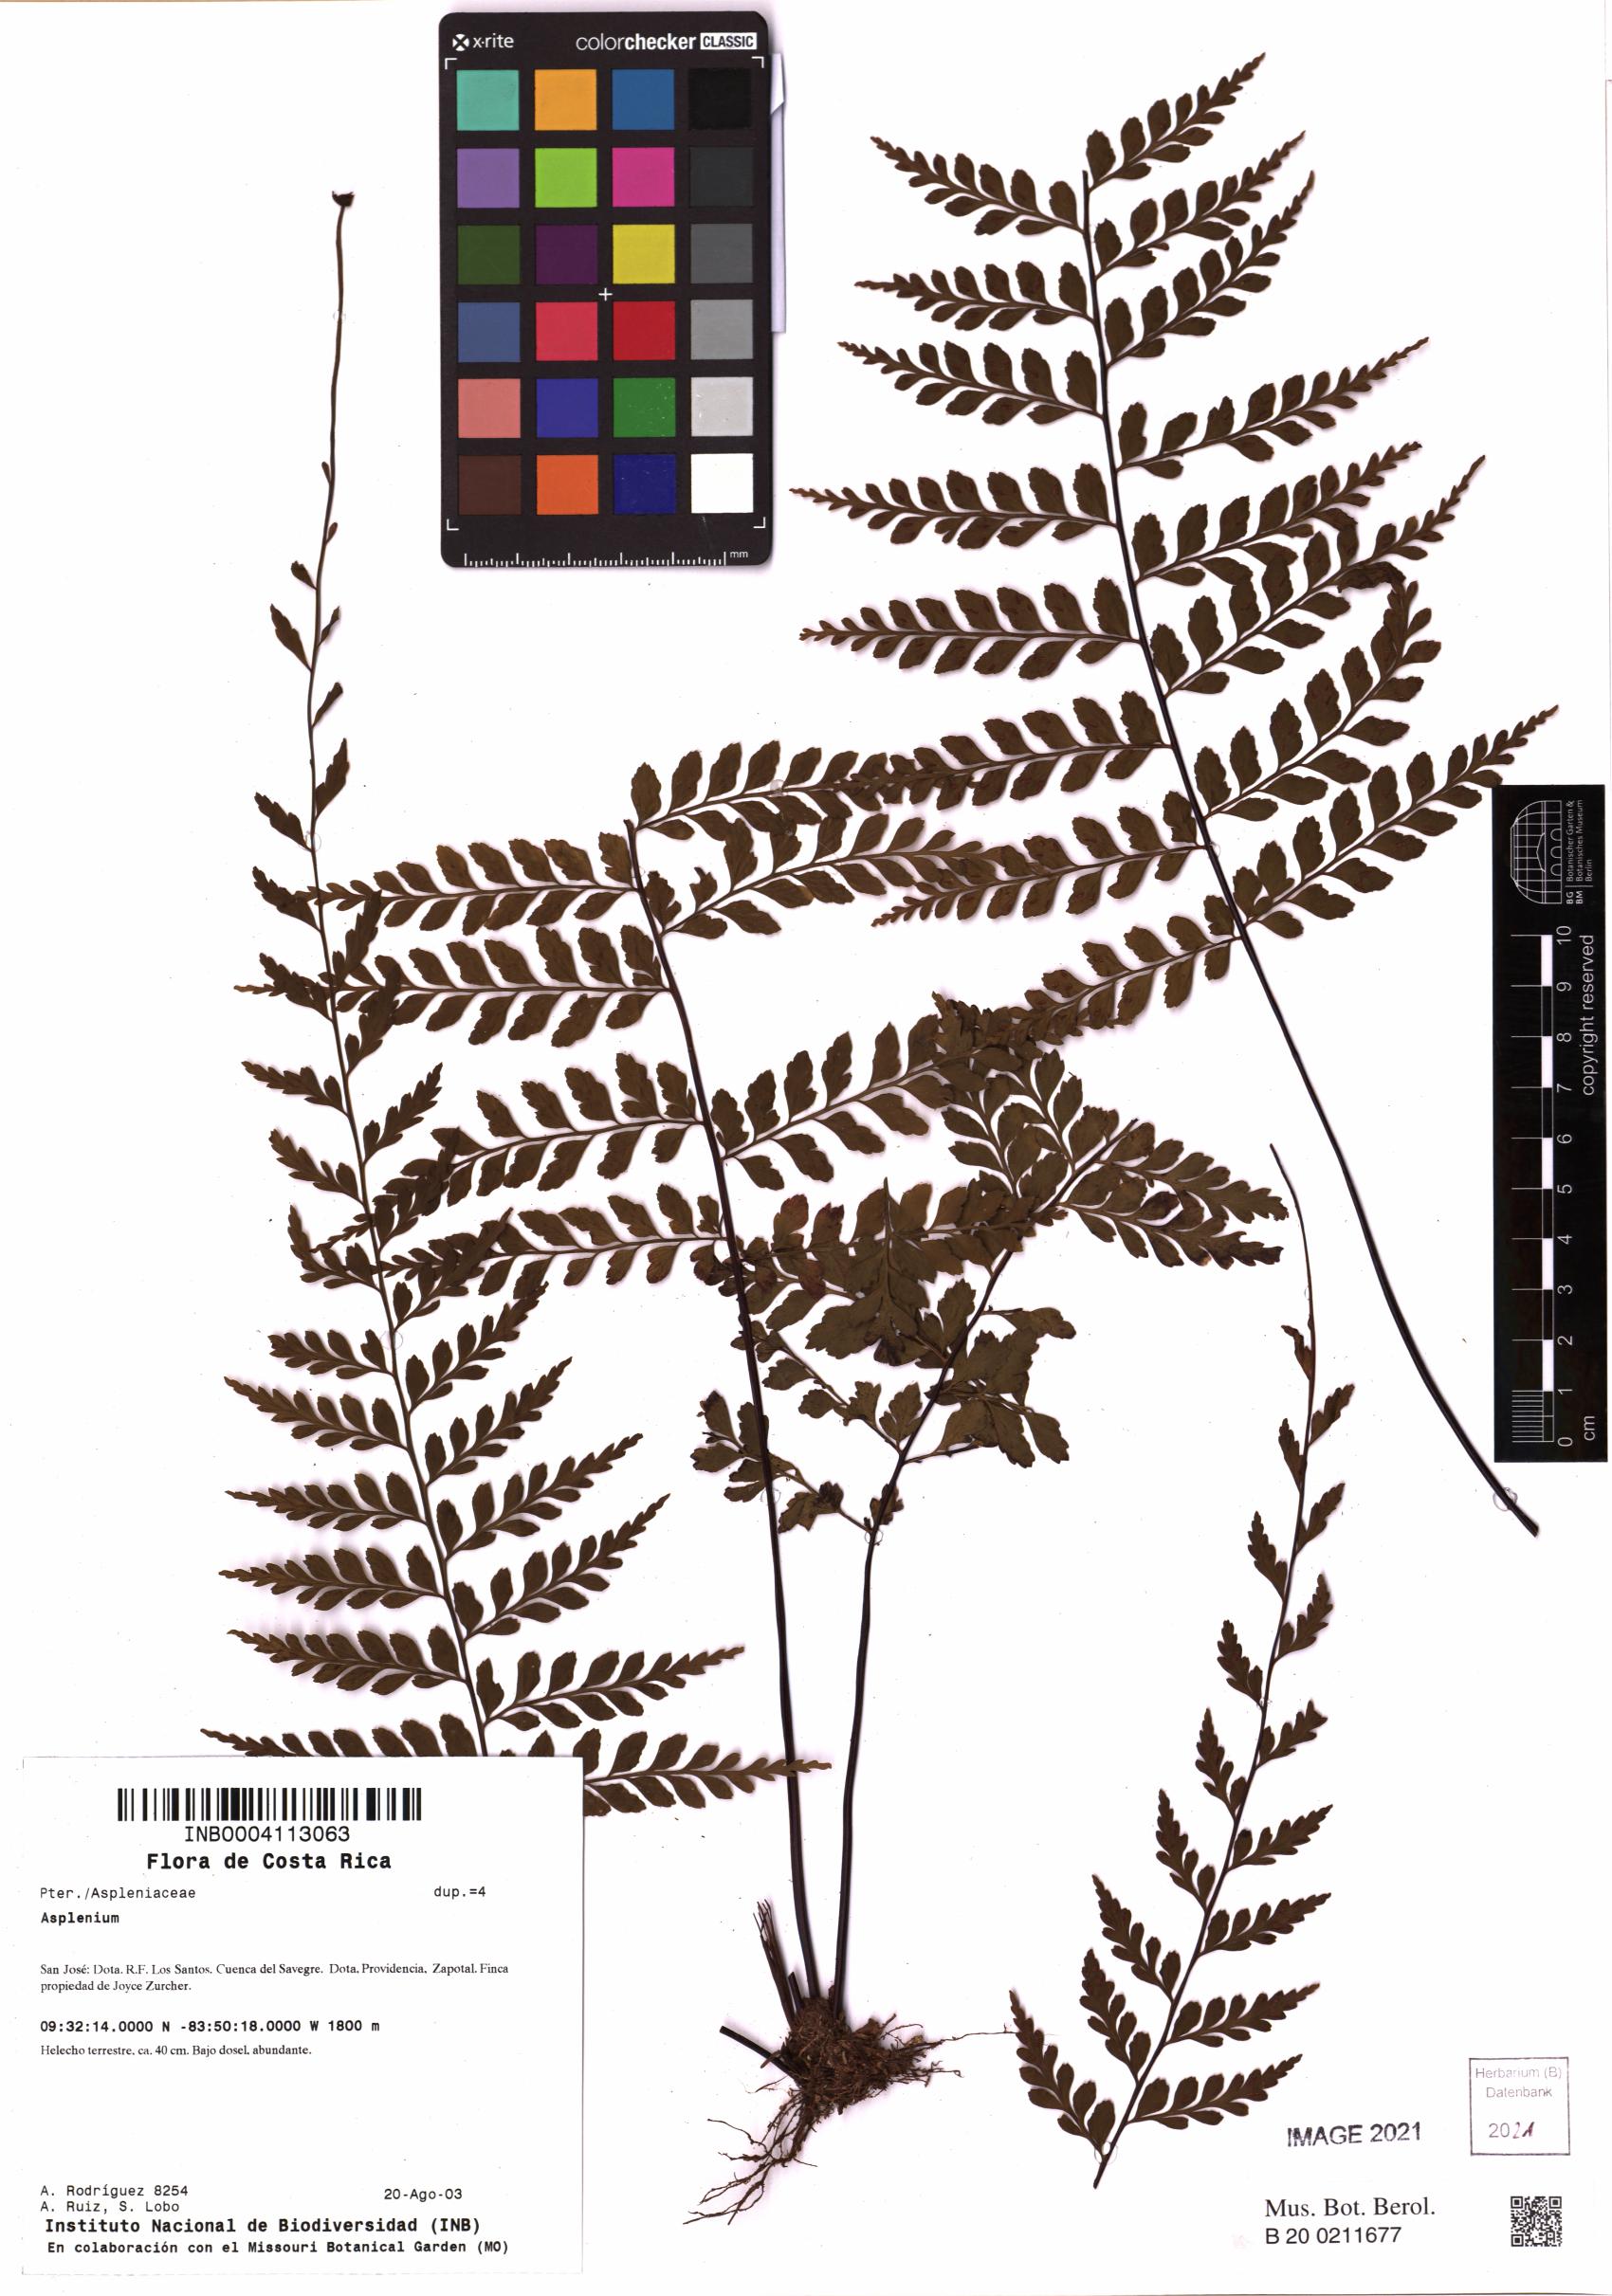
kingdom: Plantae
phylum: Tracheophyta
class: Polypodiopsida
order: Polypodiales
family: Aspleniaceae
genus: Asplenium
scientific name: Asplenium
